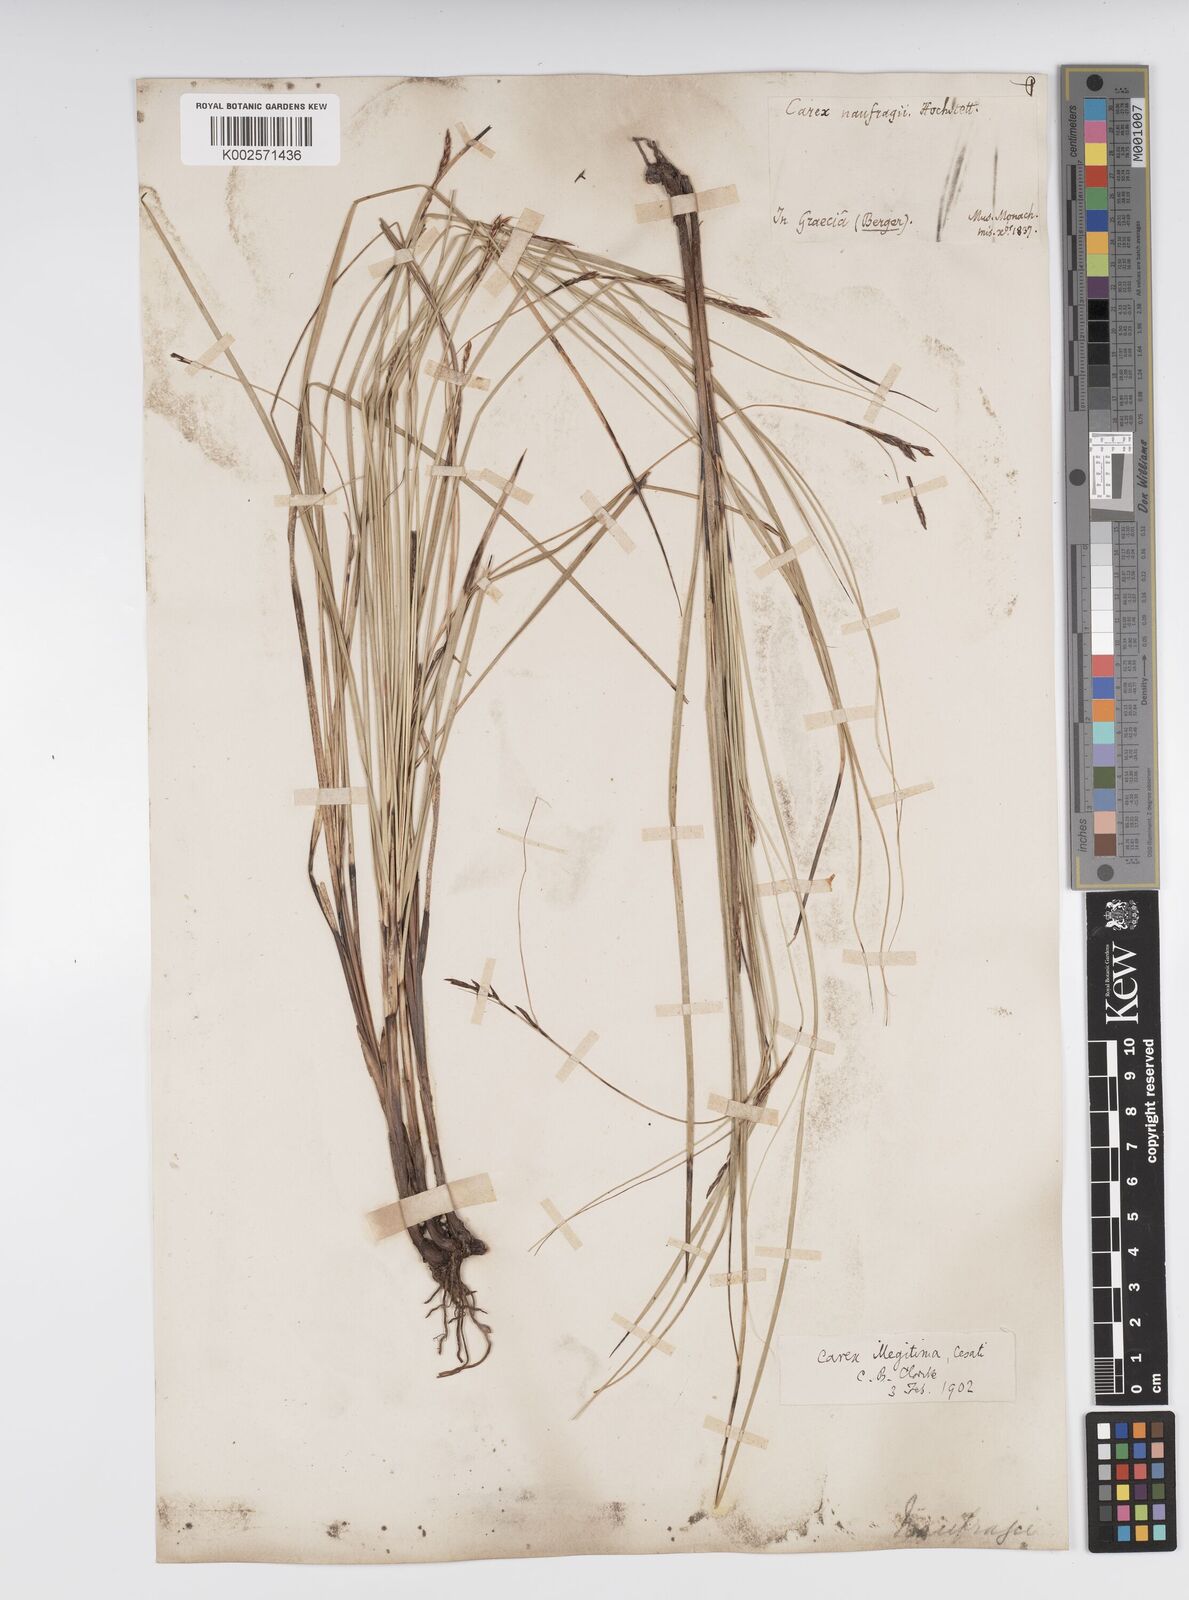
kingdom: Plantae
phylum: Tracheophyta
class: Liliopsida
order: Poales
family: Cyperaceae
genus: Carex
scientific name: Carex illegitima
